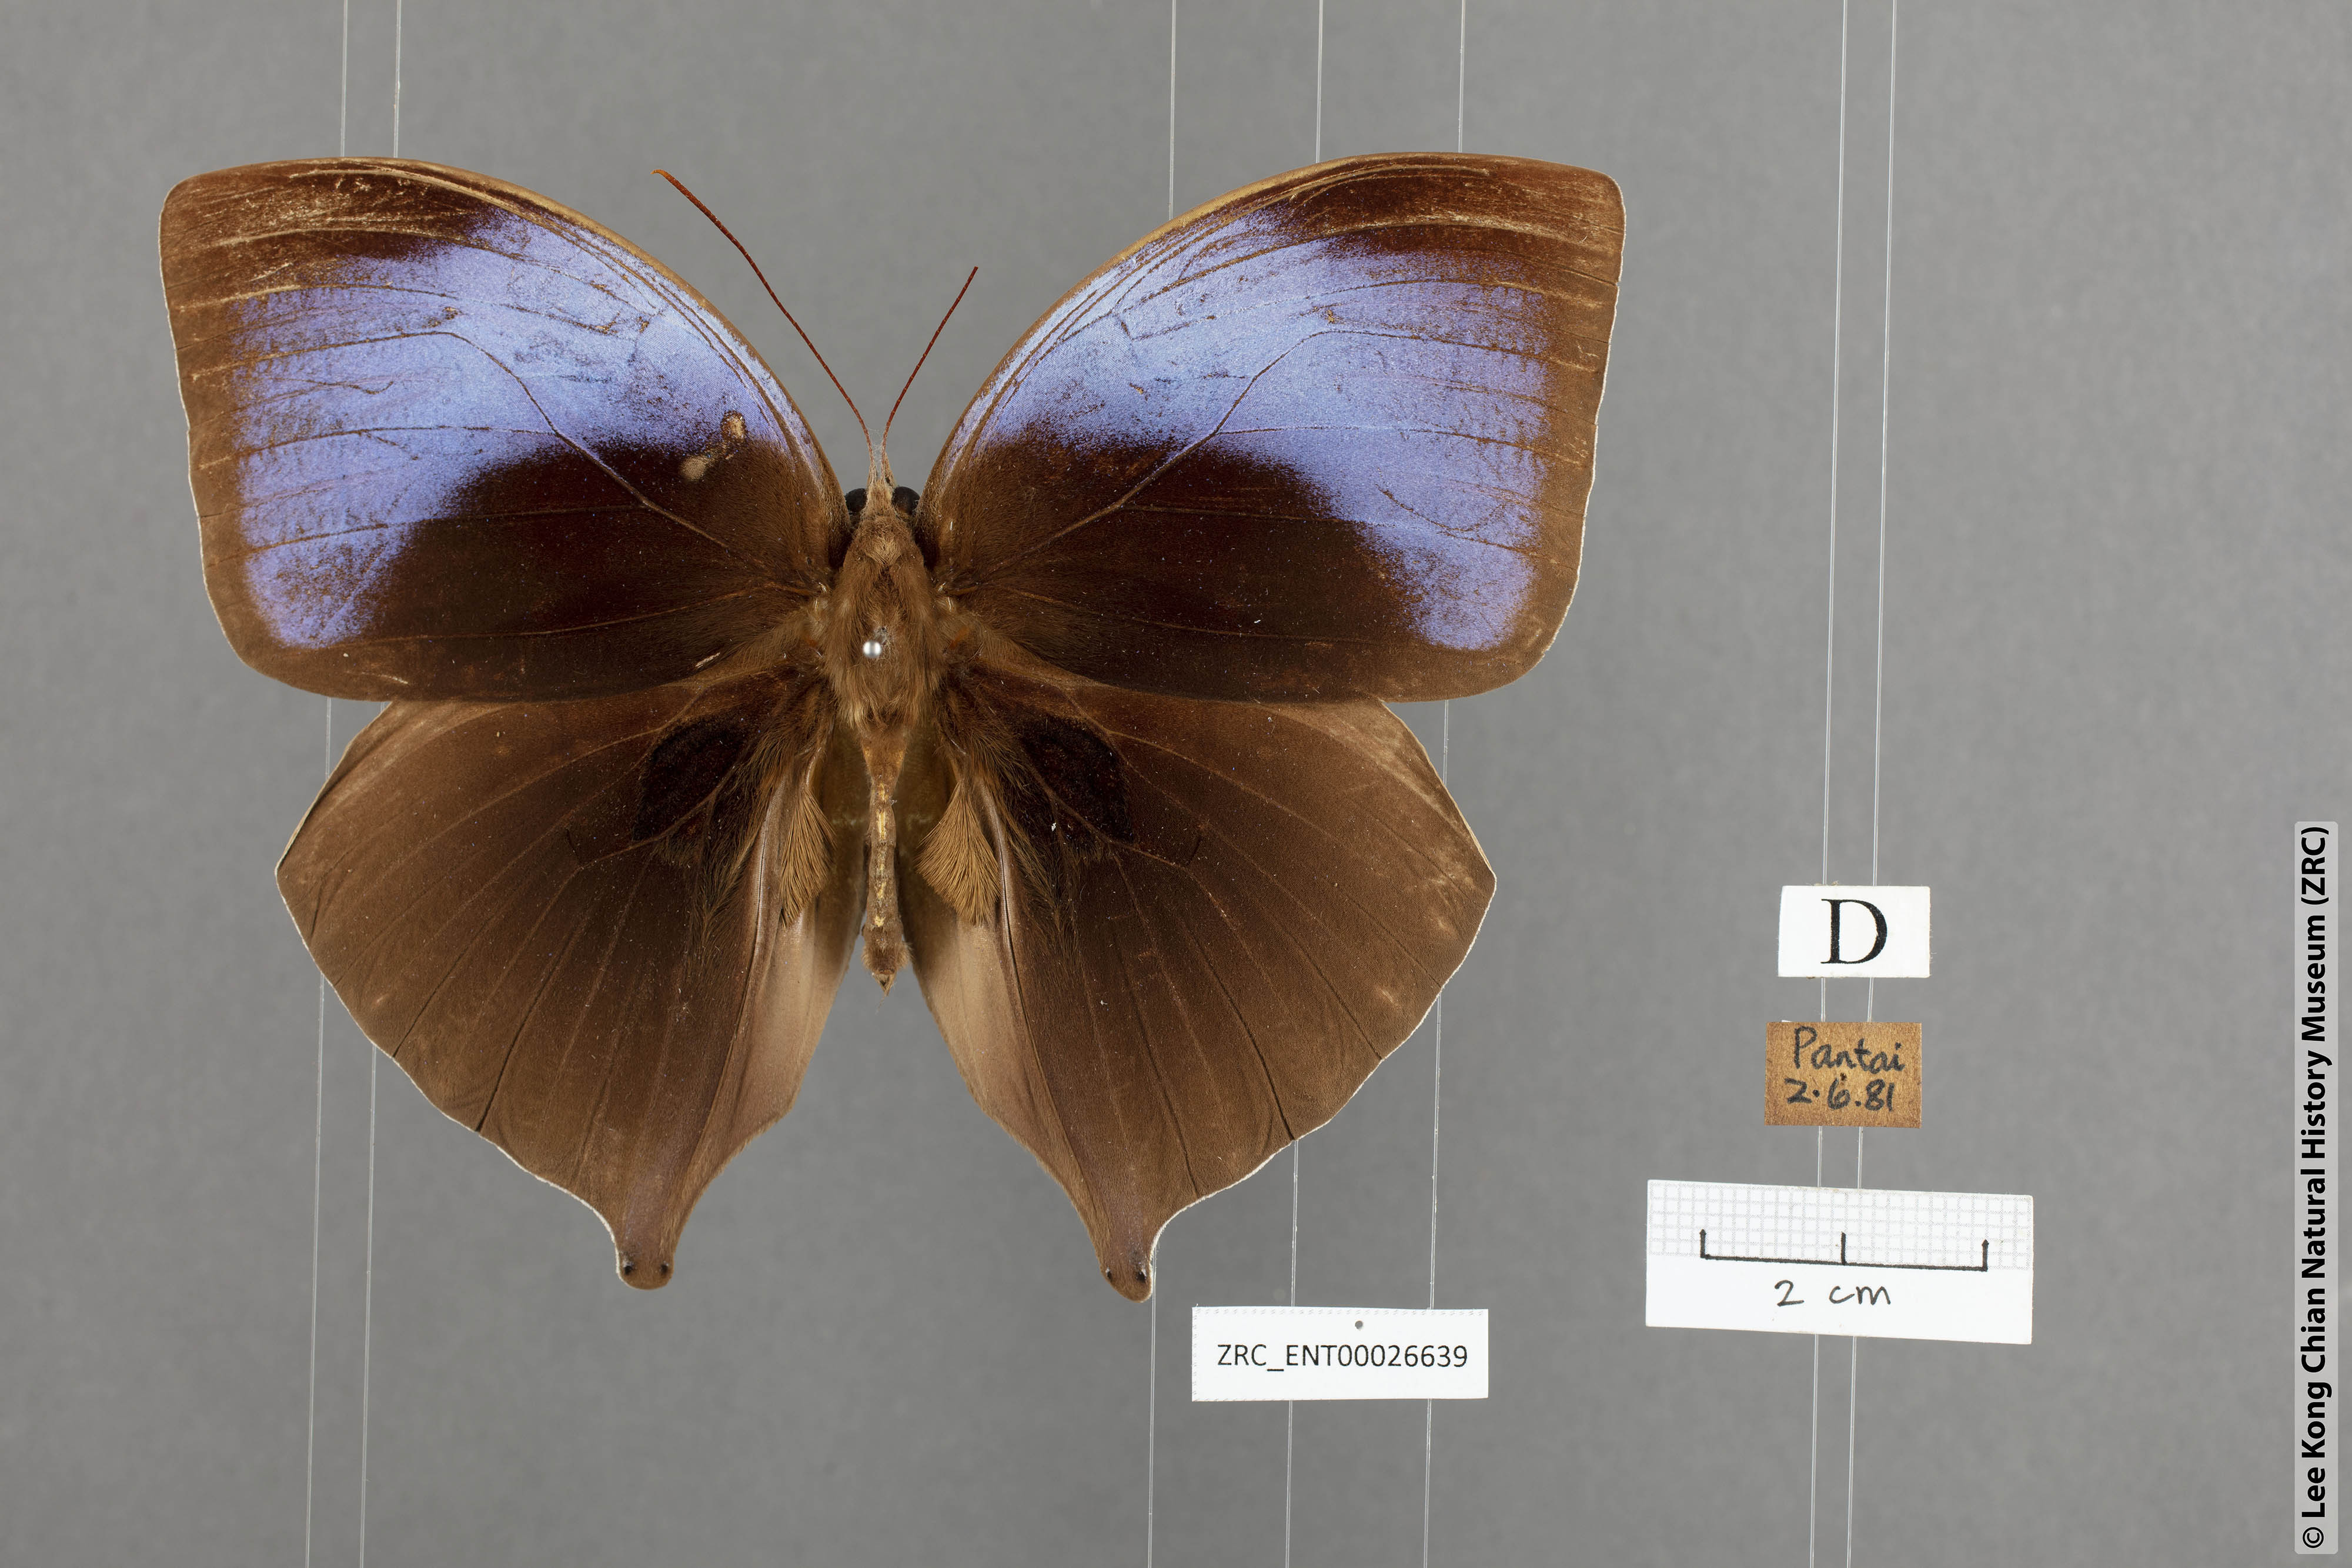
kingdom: Animalia
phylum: Arthropoda
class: Insecta
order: Lepidoptera
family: Nymphalidae
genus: Amathuxidia
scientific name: Amathuxidia amythaon
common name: Koh-i-noor
